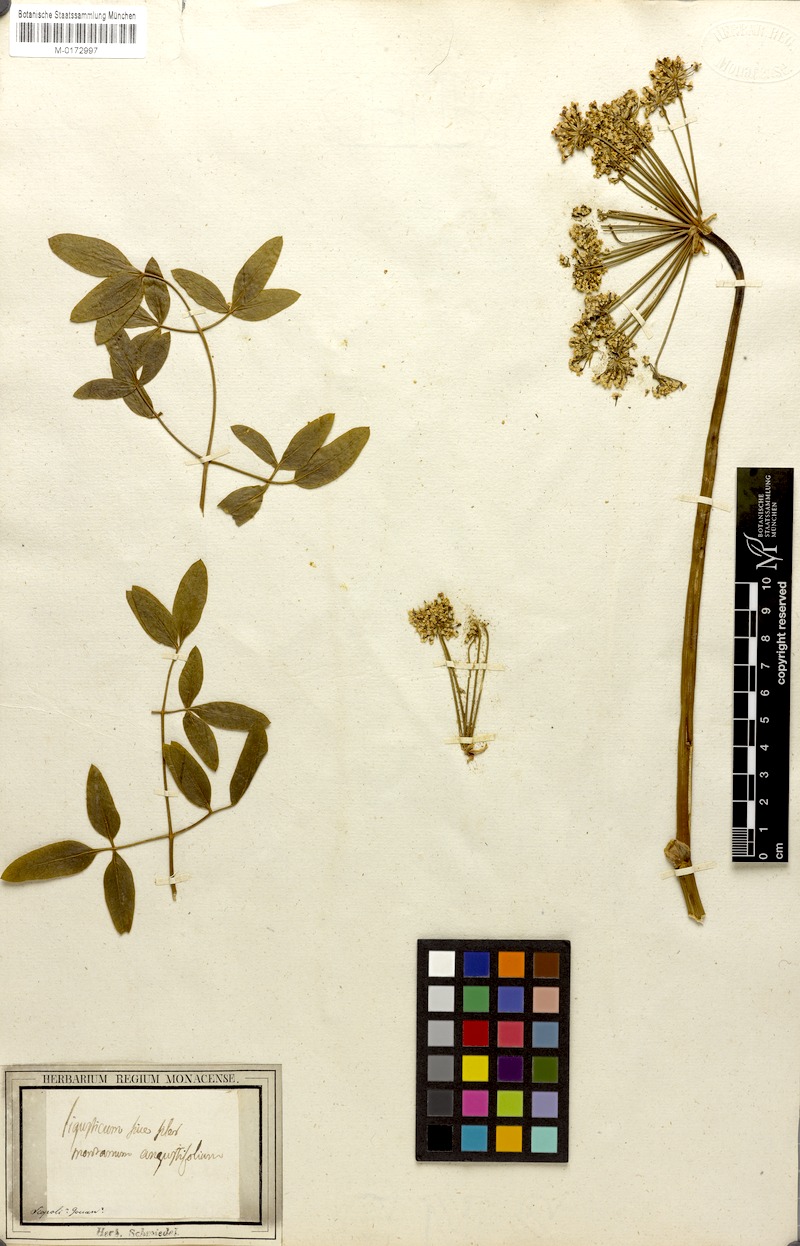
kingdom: Plantae
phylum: Tracheophyta
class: Magnoliopsida
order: Apiales
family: Apiaceae
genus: Siler
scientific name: Siler montanum
